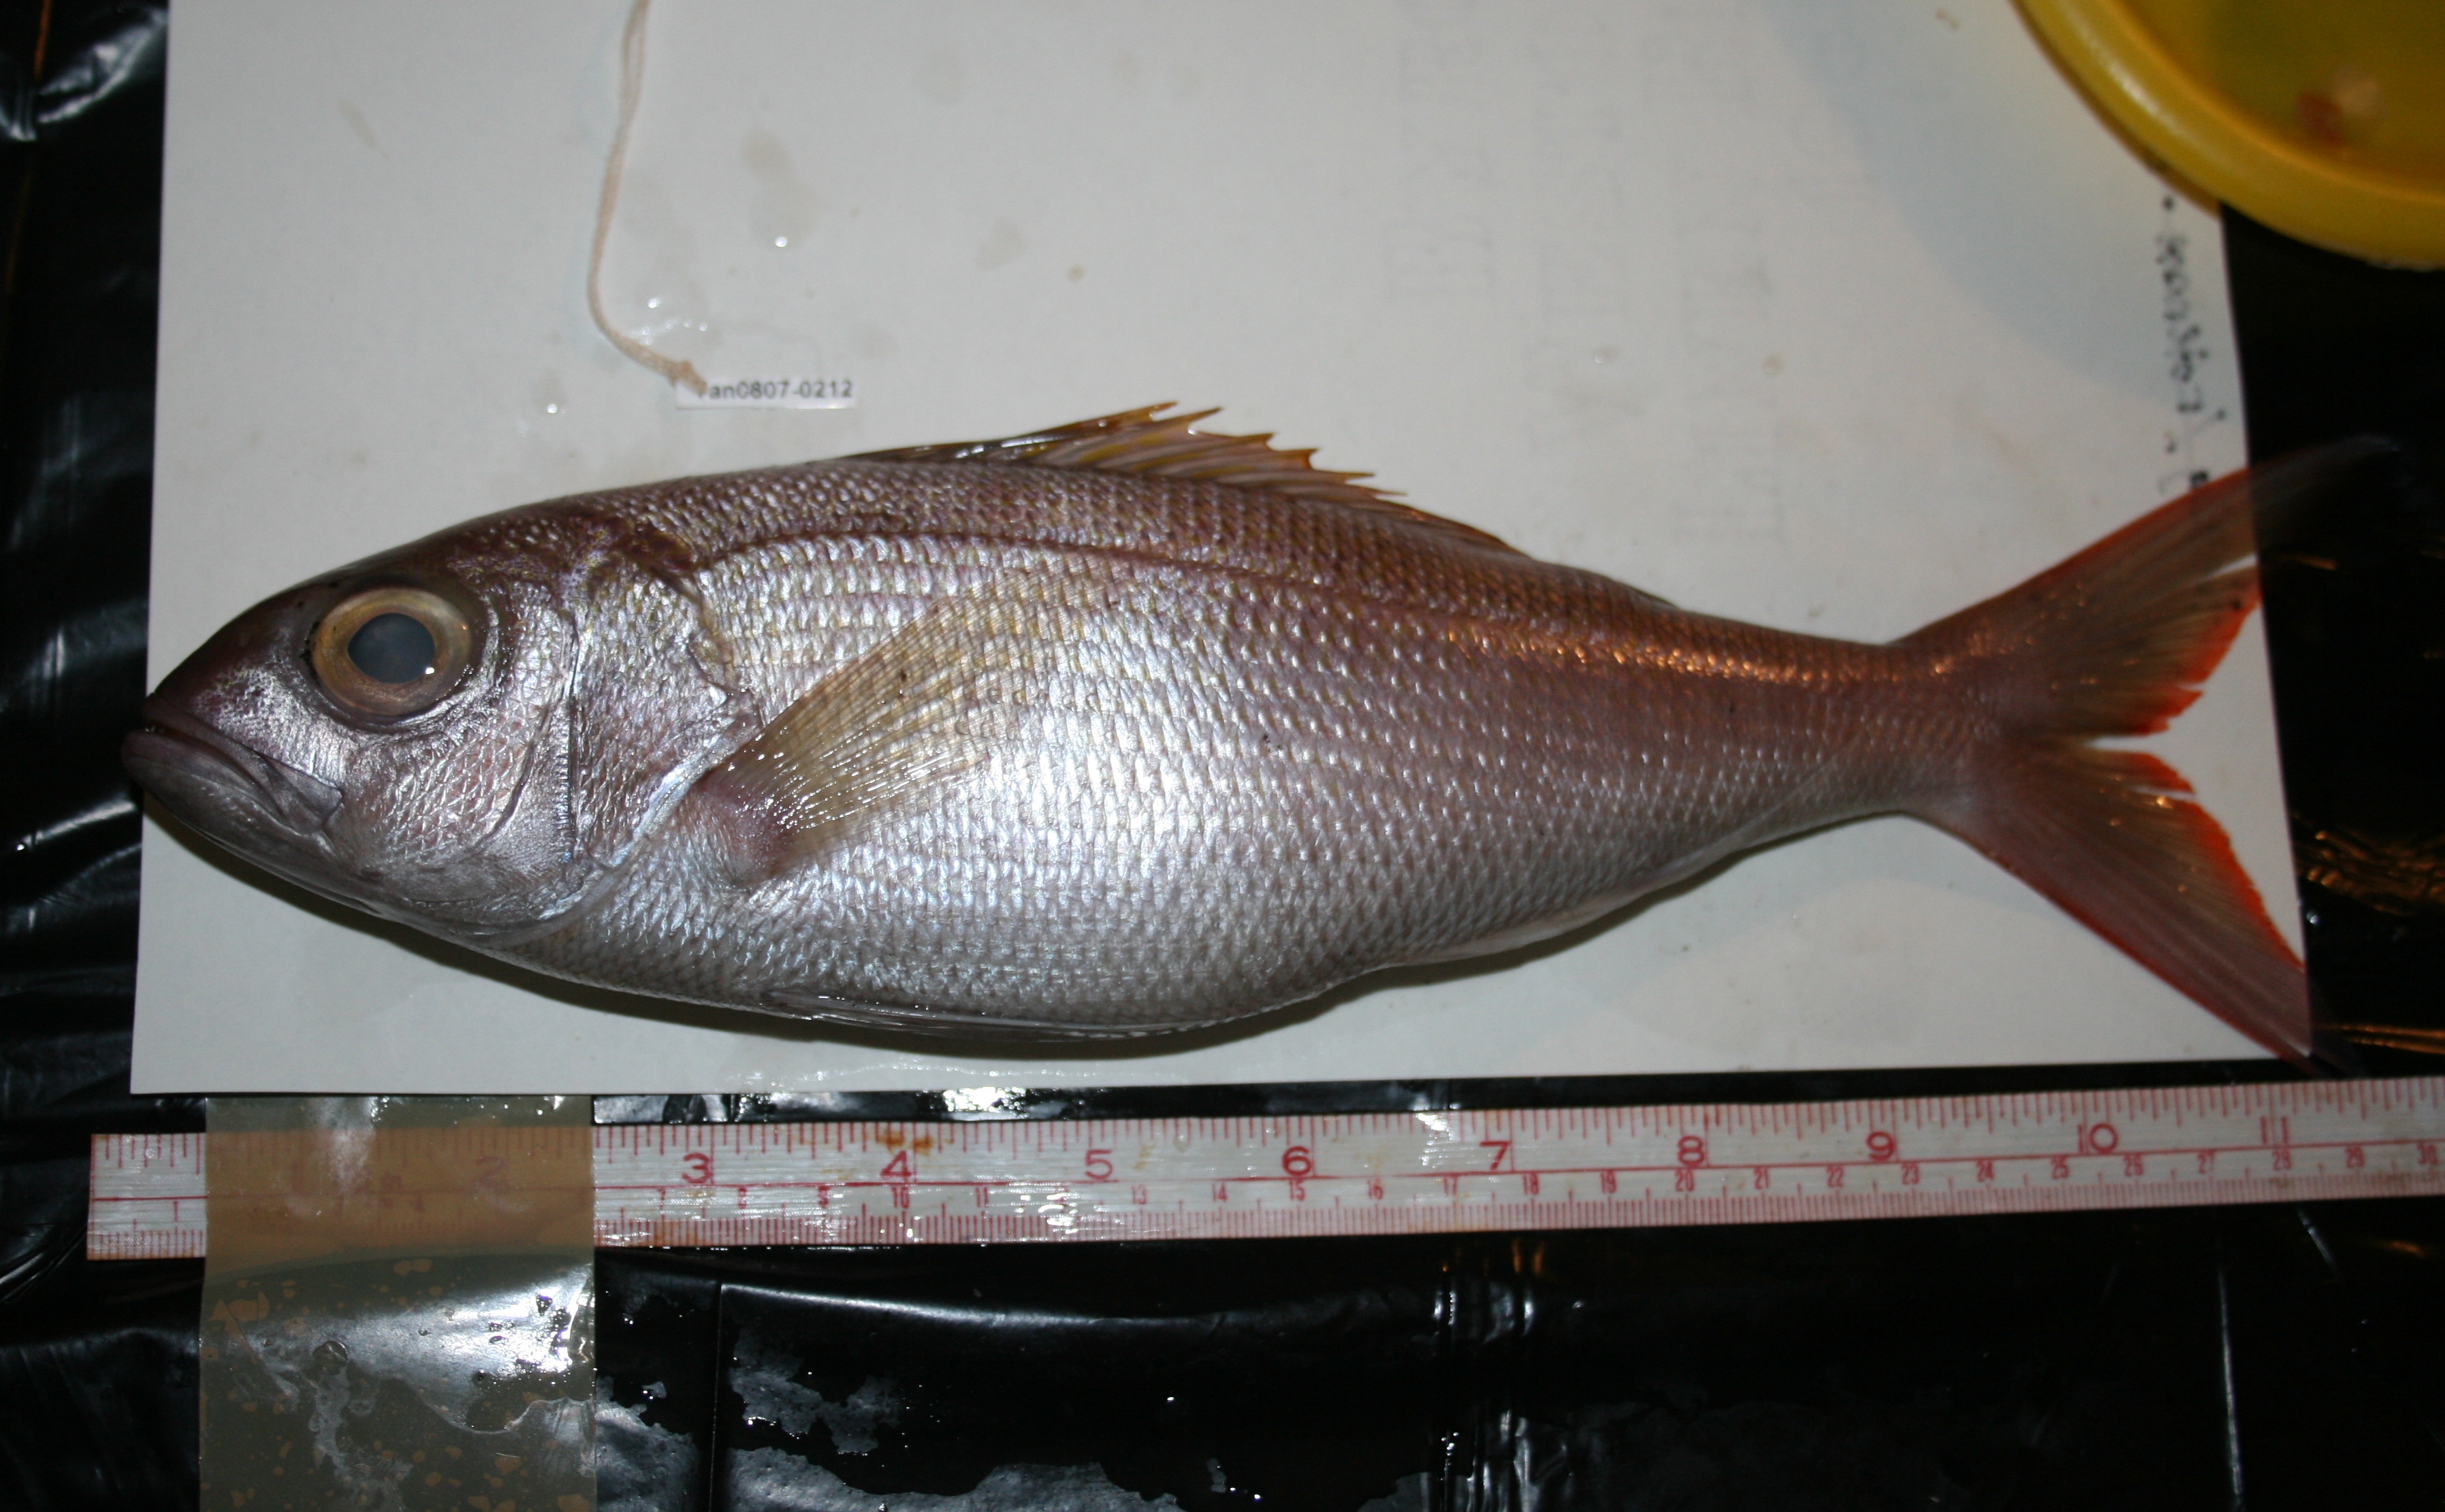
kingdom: Animalia
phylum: Chordata
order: Perciformes
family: Lutjanidae
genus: Pristipomoides
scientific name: Pristipomoides filamentosus
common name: Bluespot jobfish
